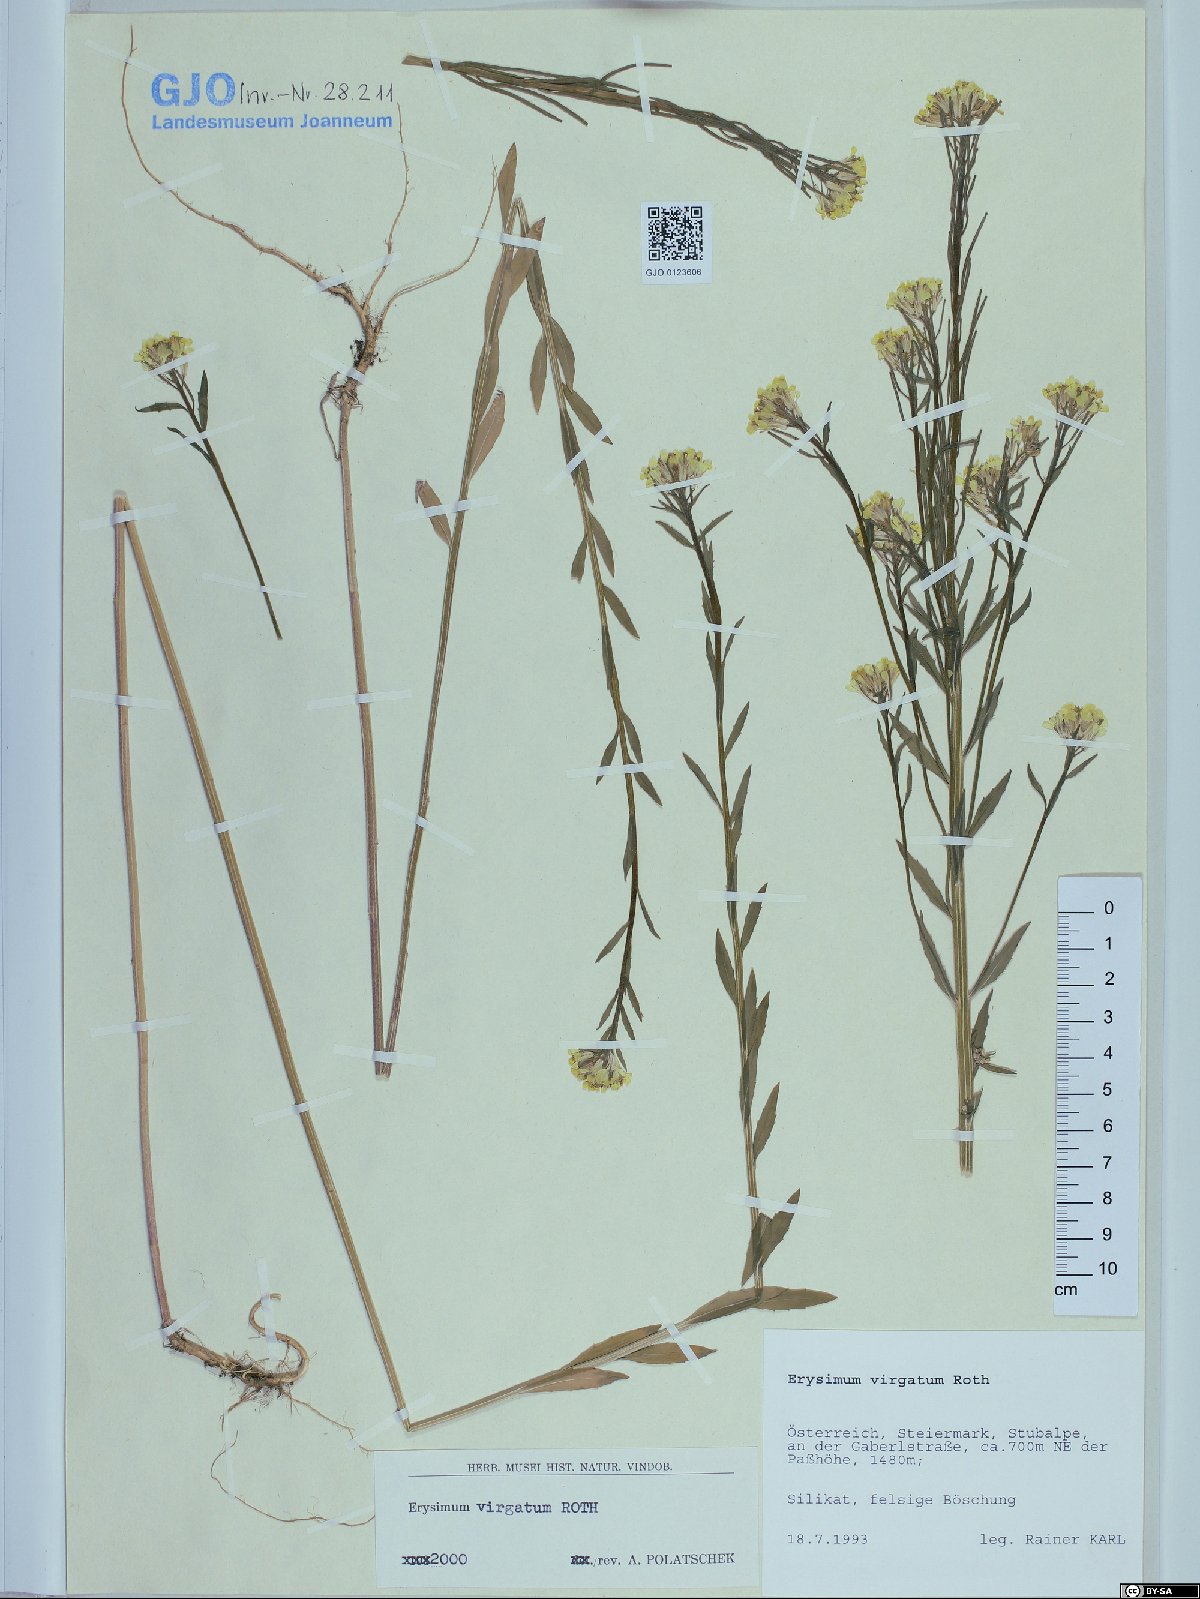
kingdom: Plantae
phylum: Tracheophyta
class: Magnoliopsida
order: Brassicales
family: Brassicaceae
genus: Erysimum
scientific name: Erysimum virgatum
